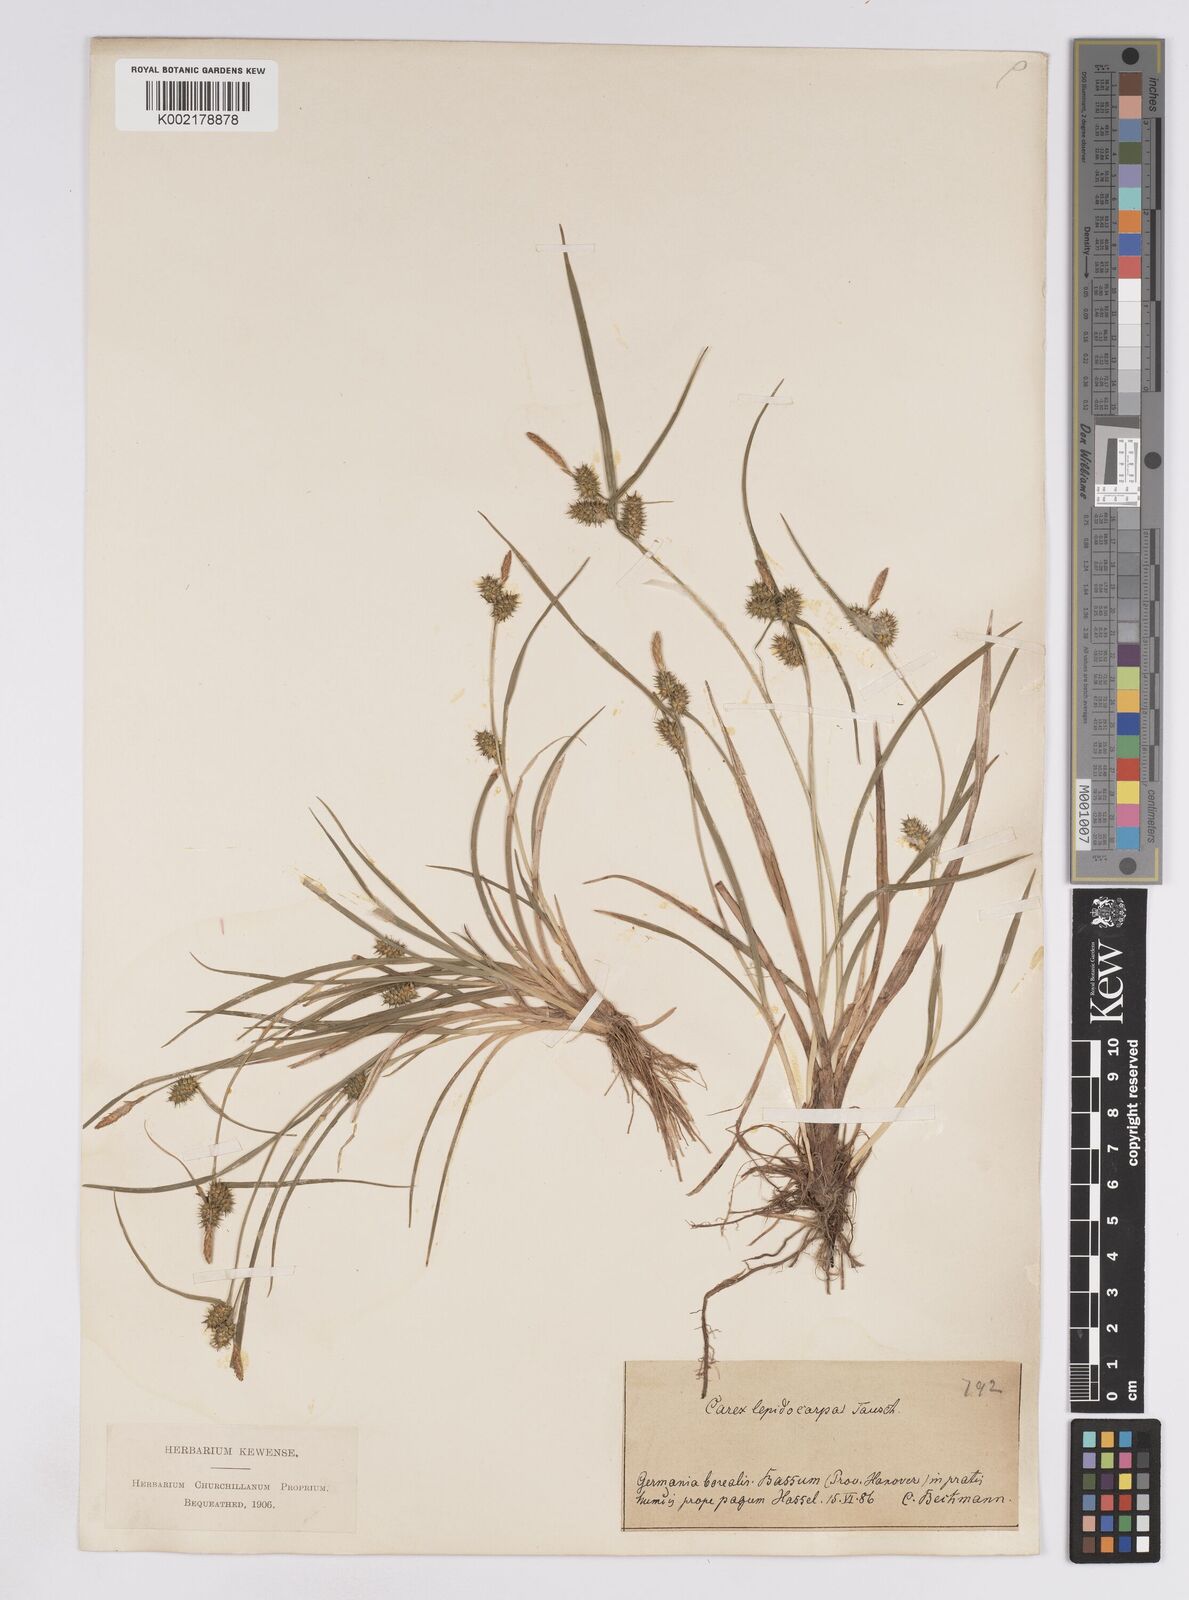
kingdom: Plantae
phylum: Tracheophyta
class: Liliopsida
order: Poales
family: Cyperaceae
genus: Carex
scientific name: Carex lepidocarpa
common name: Long-stalked yellow-sedge
